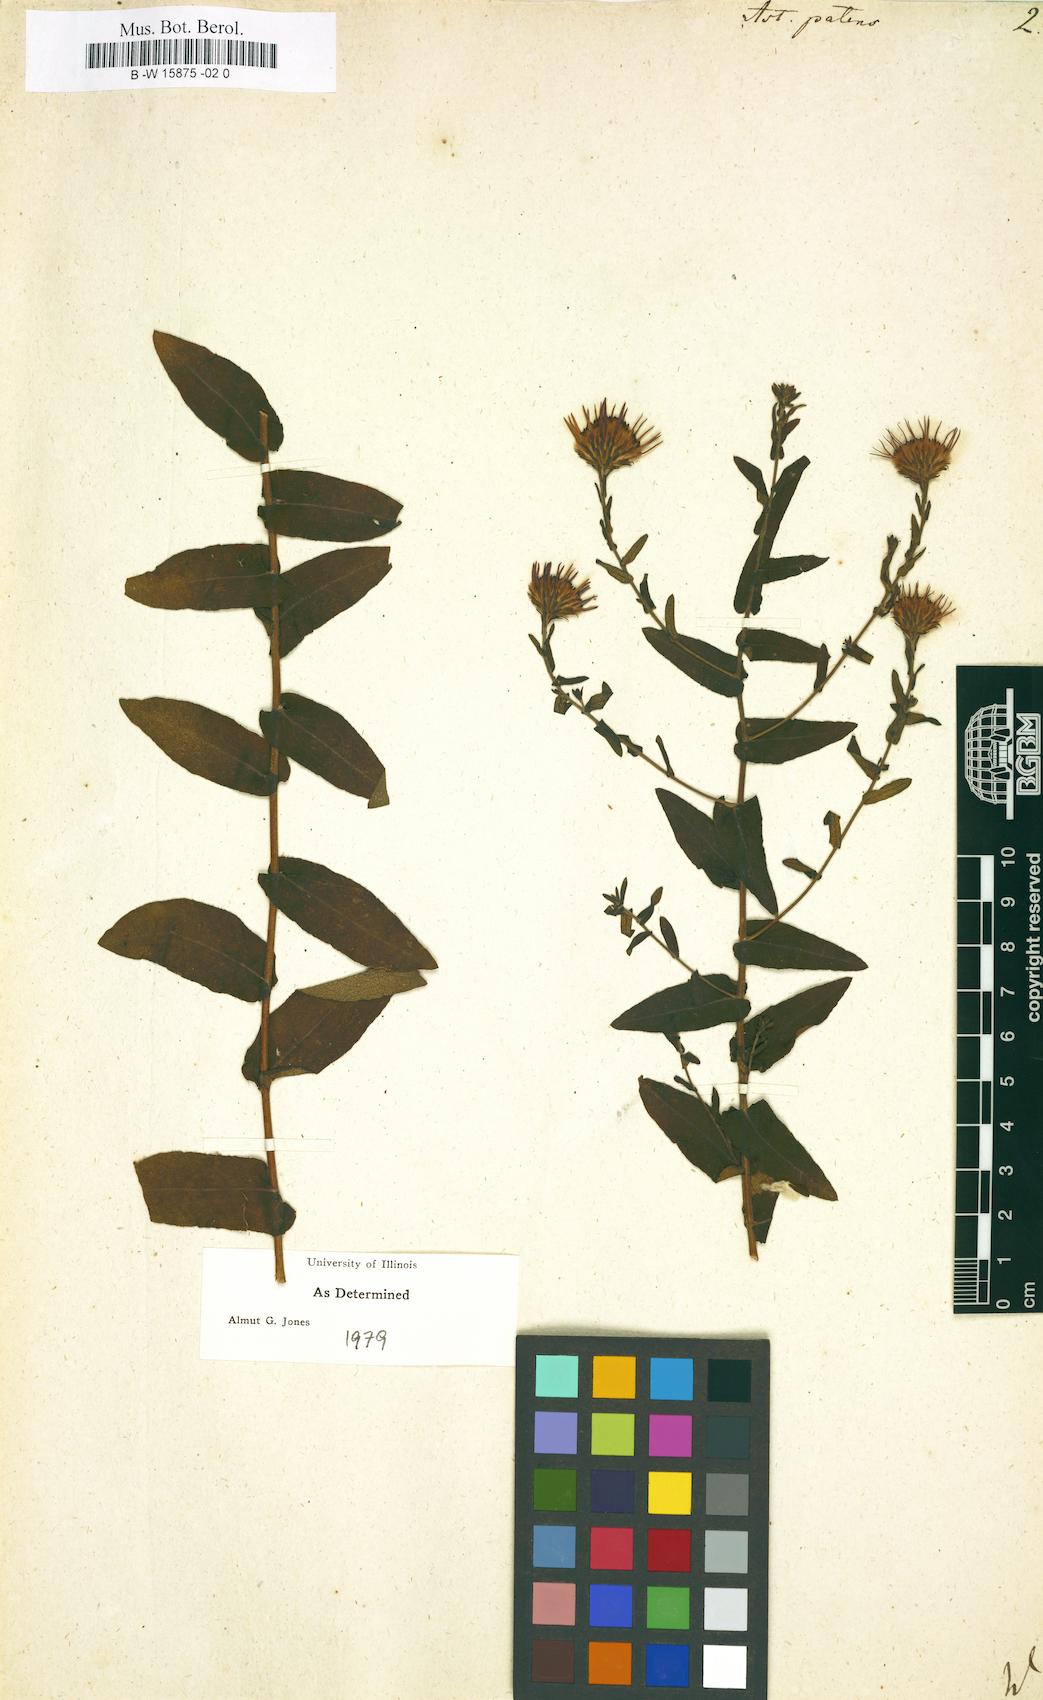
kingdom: Plantae
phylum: Tracheophyta
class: Magnoliopsida
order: Asterales
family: Asteraceae
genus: Aster
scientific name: Aster patens
